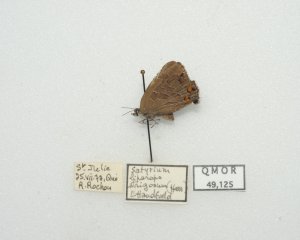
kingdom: Animalia
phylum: Arthropoda
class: Insecta
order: Lepidoptera
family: Lycaenidae
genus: Satyrium
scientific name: Satyrium liparops
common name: Striped Hairstreak
